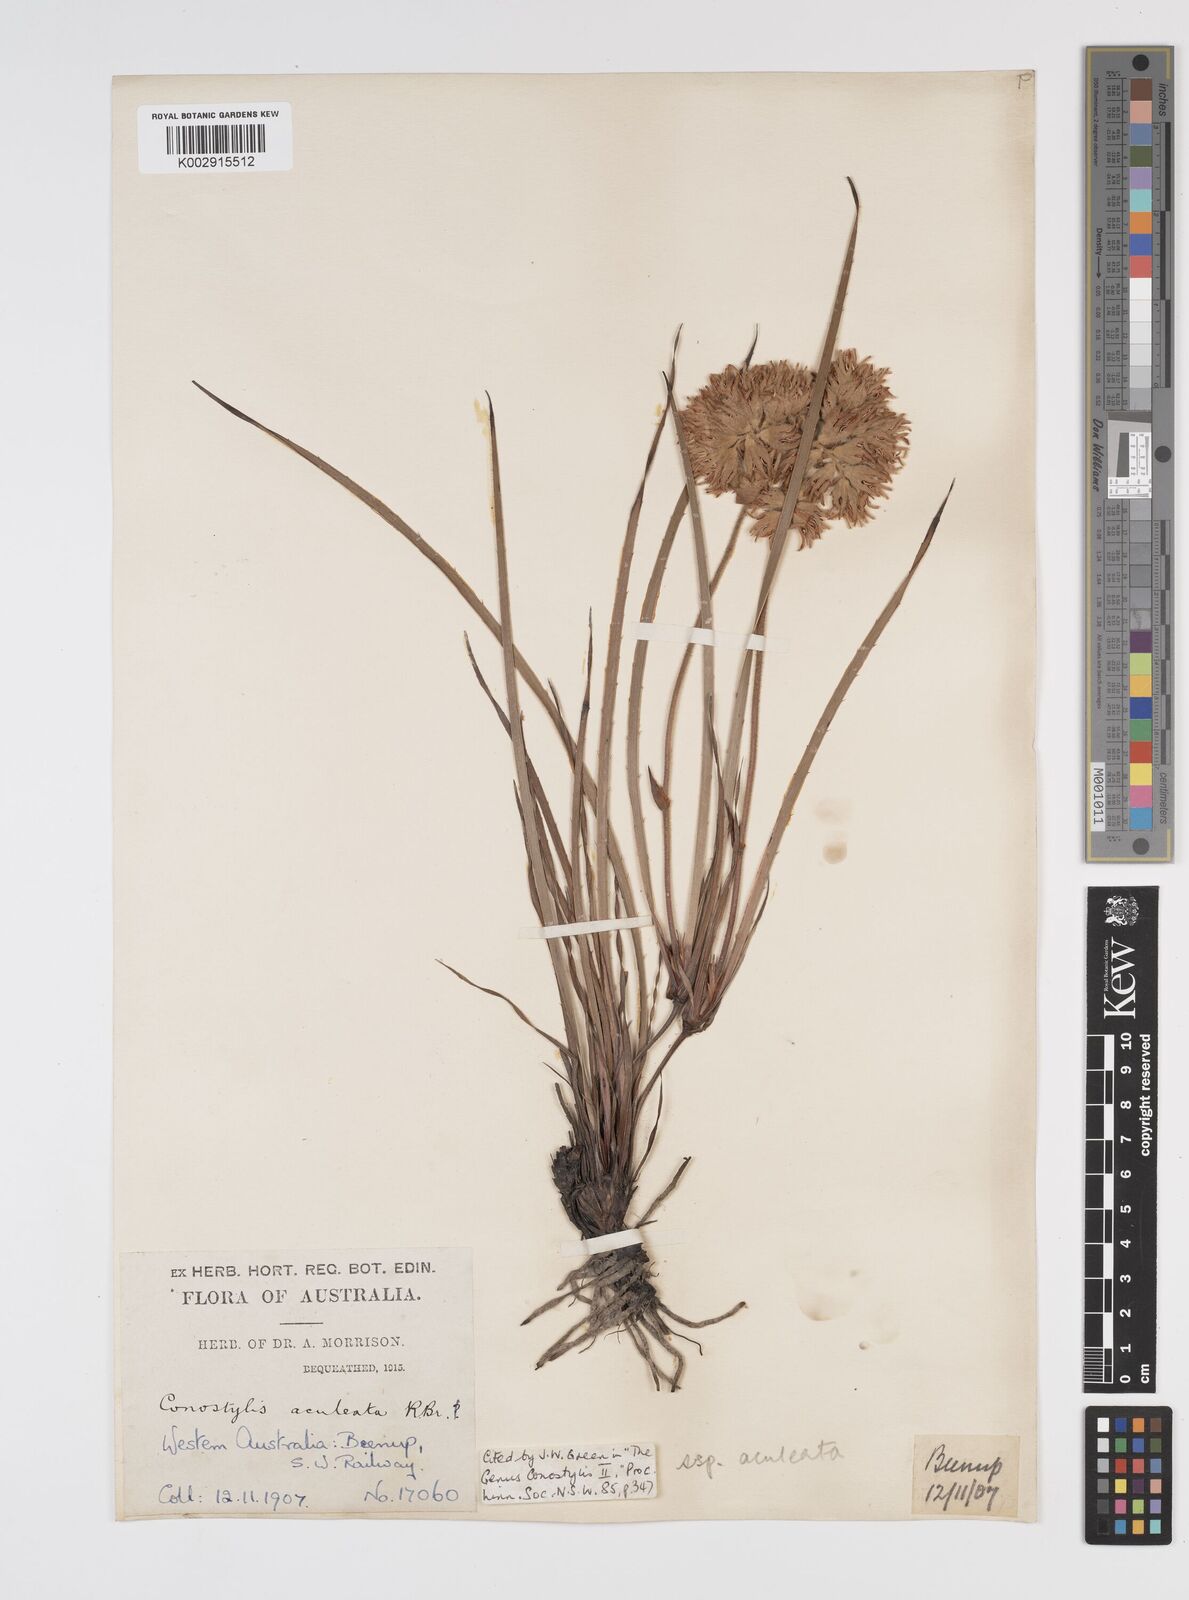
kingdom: Plantae
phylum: Tracheophyta
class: Liliopsida
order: Commelinales
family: Haemodoraceae
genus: Conostylis
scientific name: Conostylis aculeata
